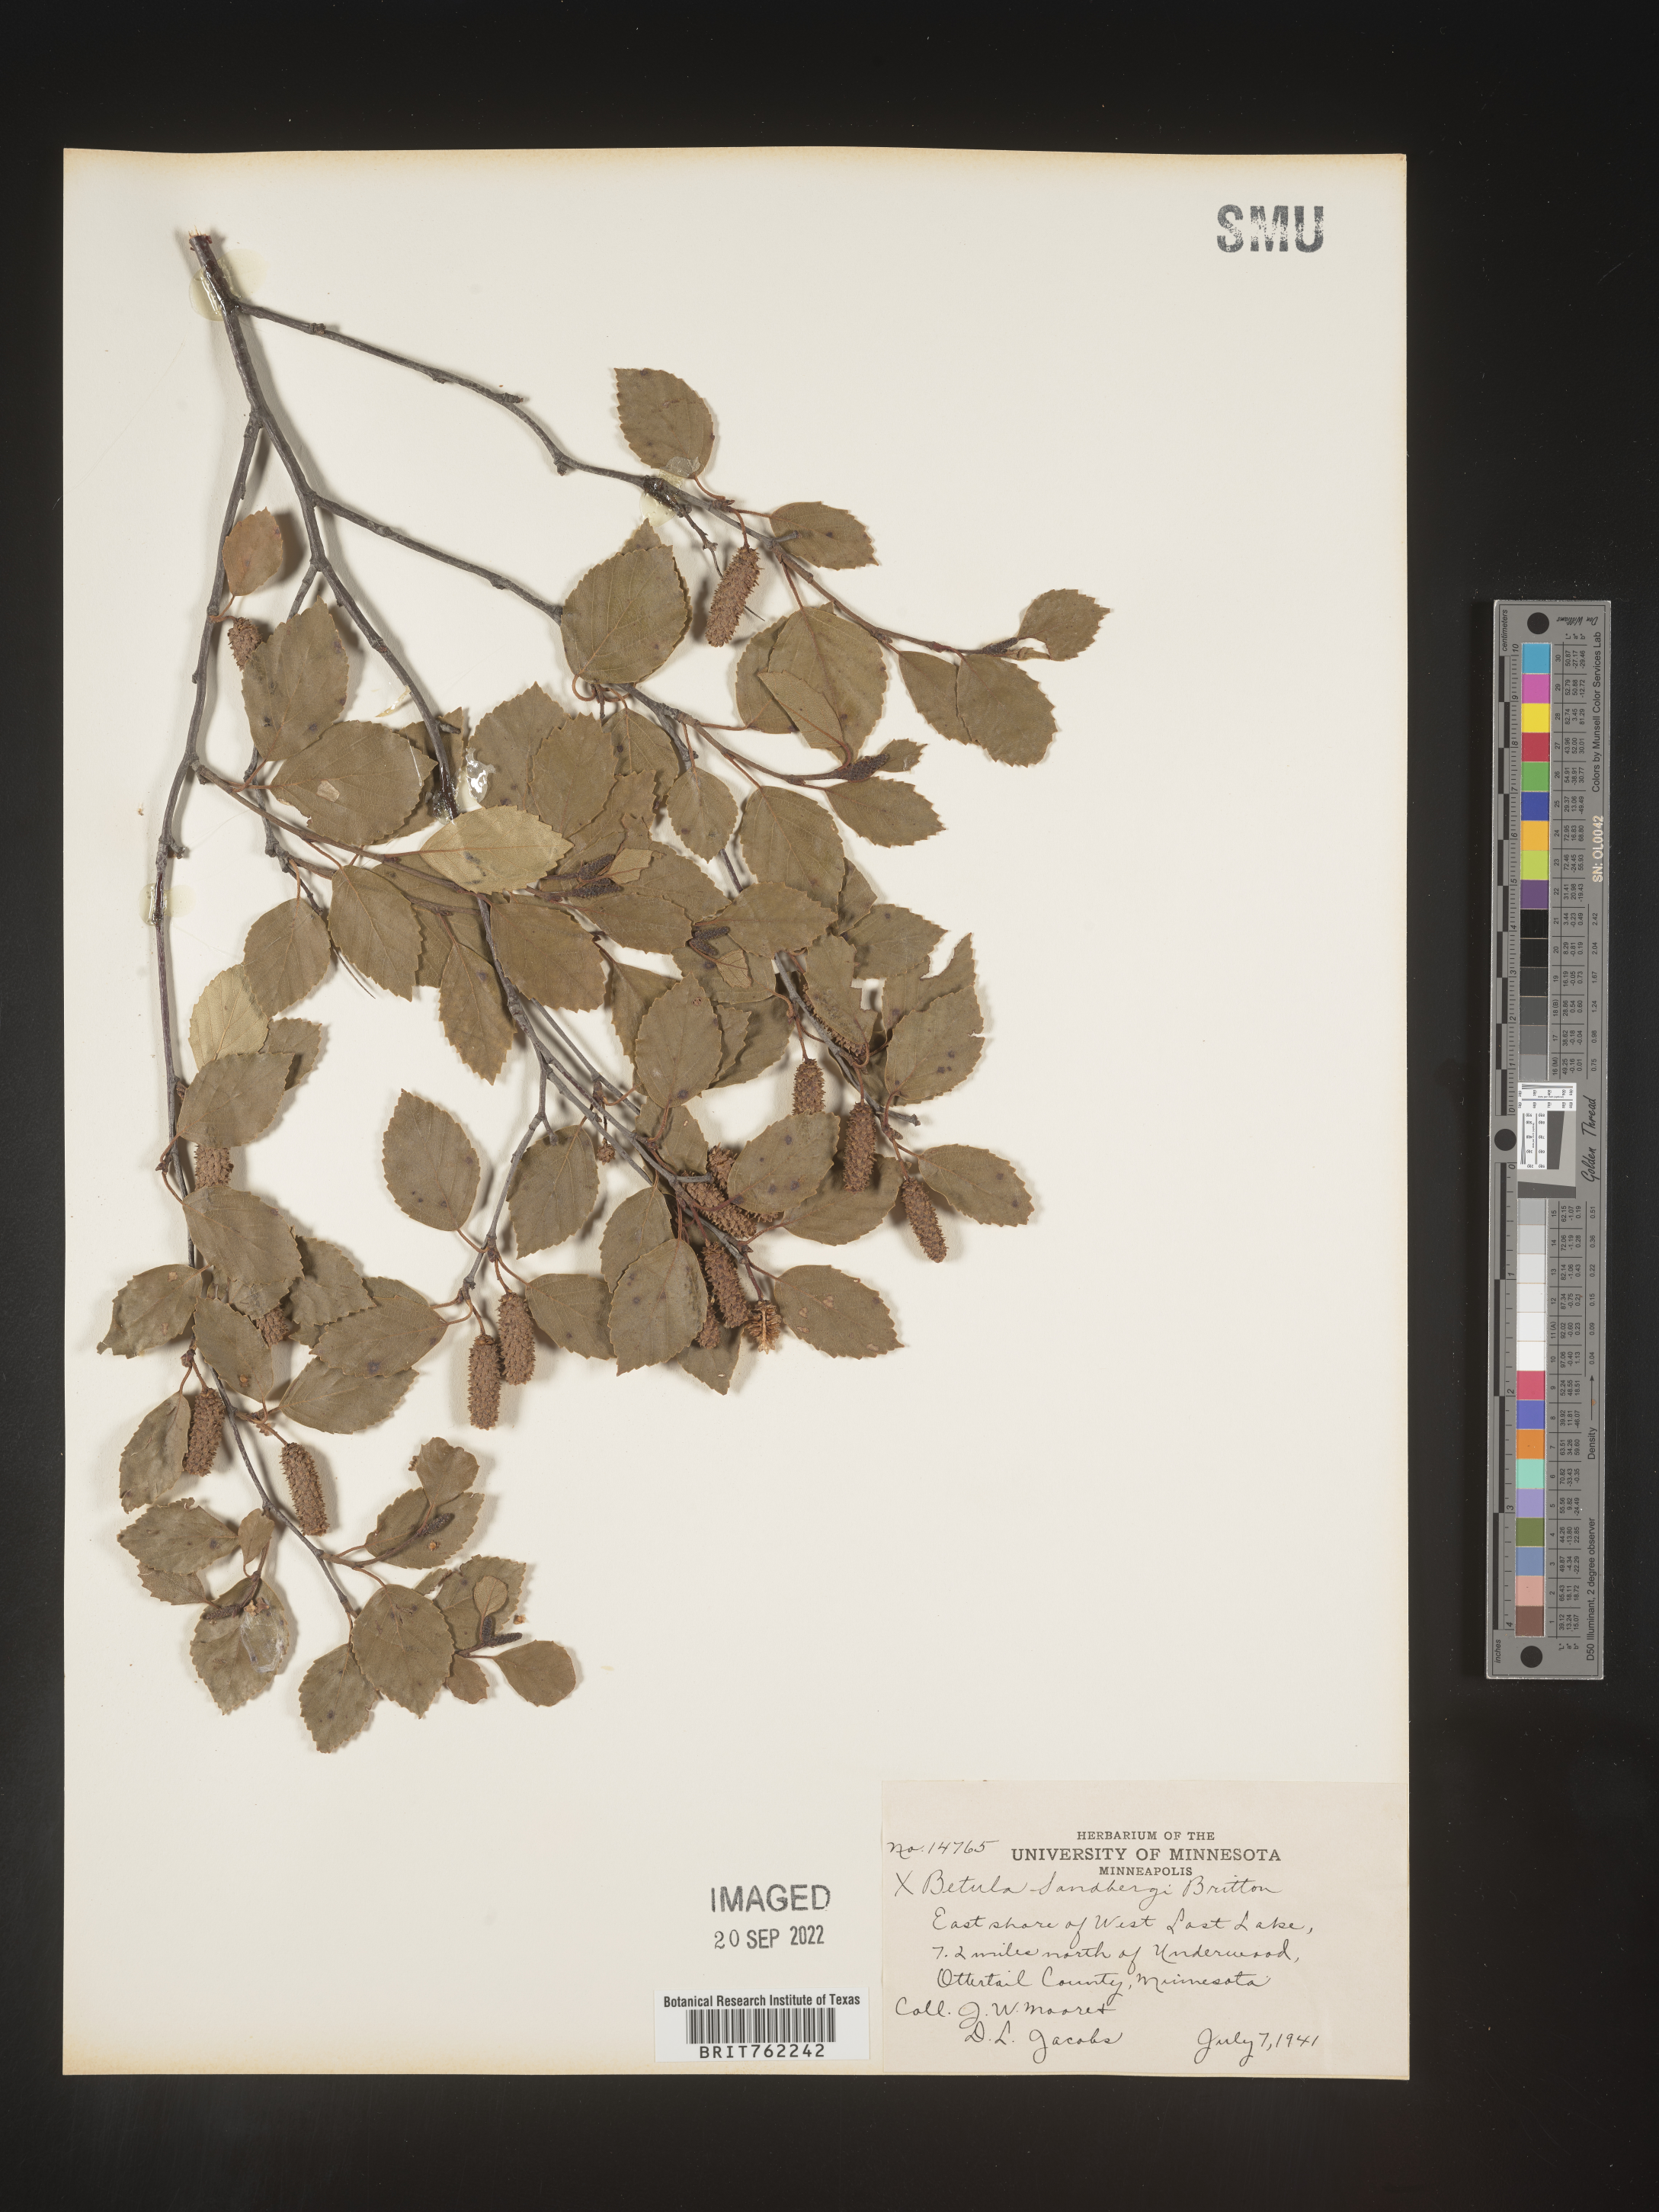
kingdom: Plantae
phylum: Tracheophyta
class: Magnoliopsida
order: Fagales
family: Betulaceae
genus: Betula
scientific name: Betula
